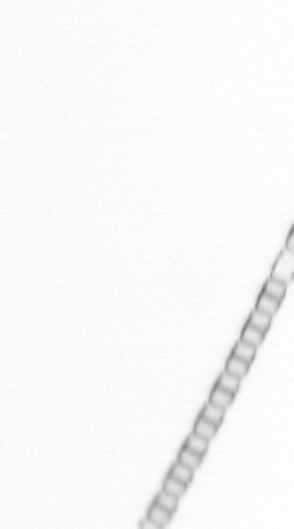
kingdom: Chromista
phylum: Ochrophyta
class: Bacillariophyceae
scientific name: Bacillariophyceae
